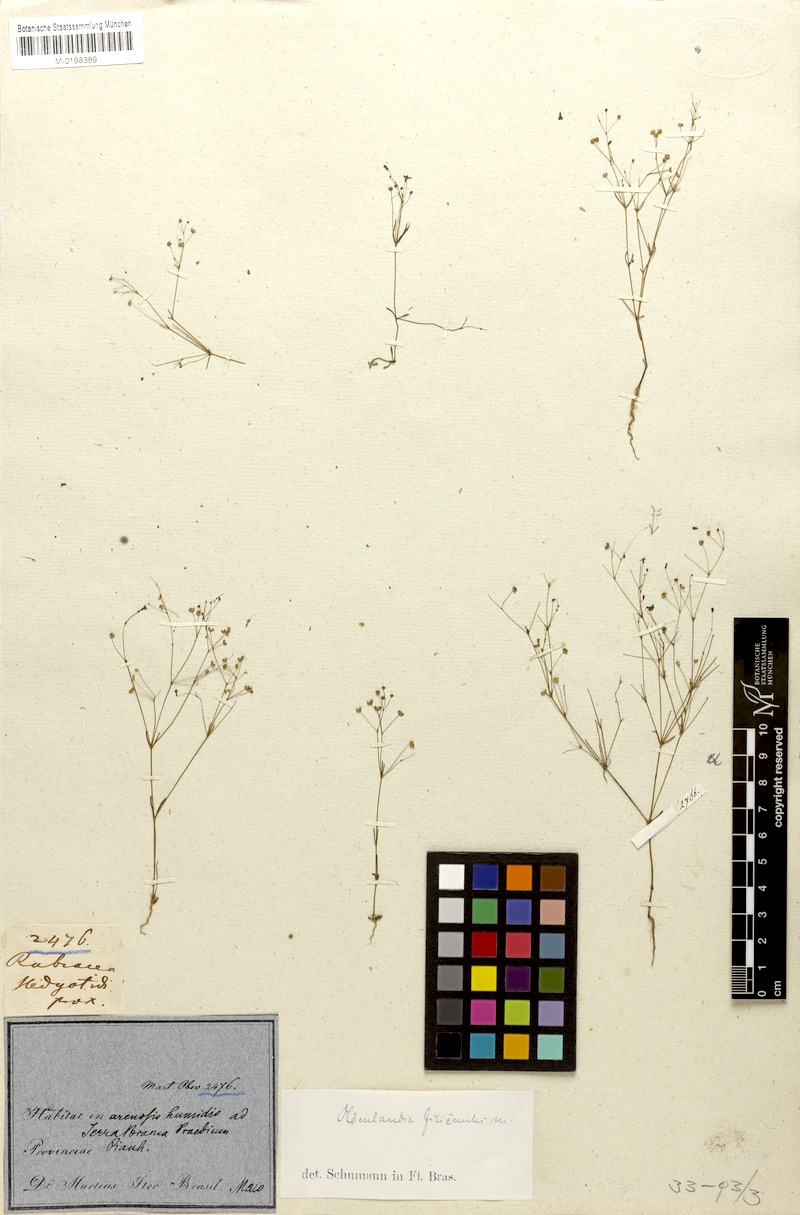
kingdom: Plantae
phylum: Tracheophyta
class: Magnoliopsida
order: Gentianales
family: Rubiaceae
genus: Oldenlandia
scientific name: Oldenlandia filicaulis
